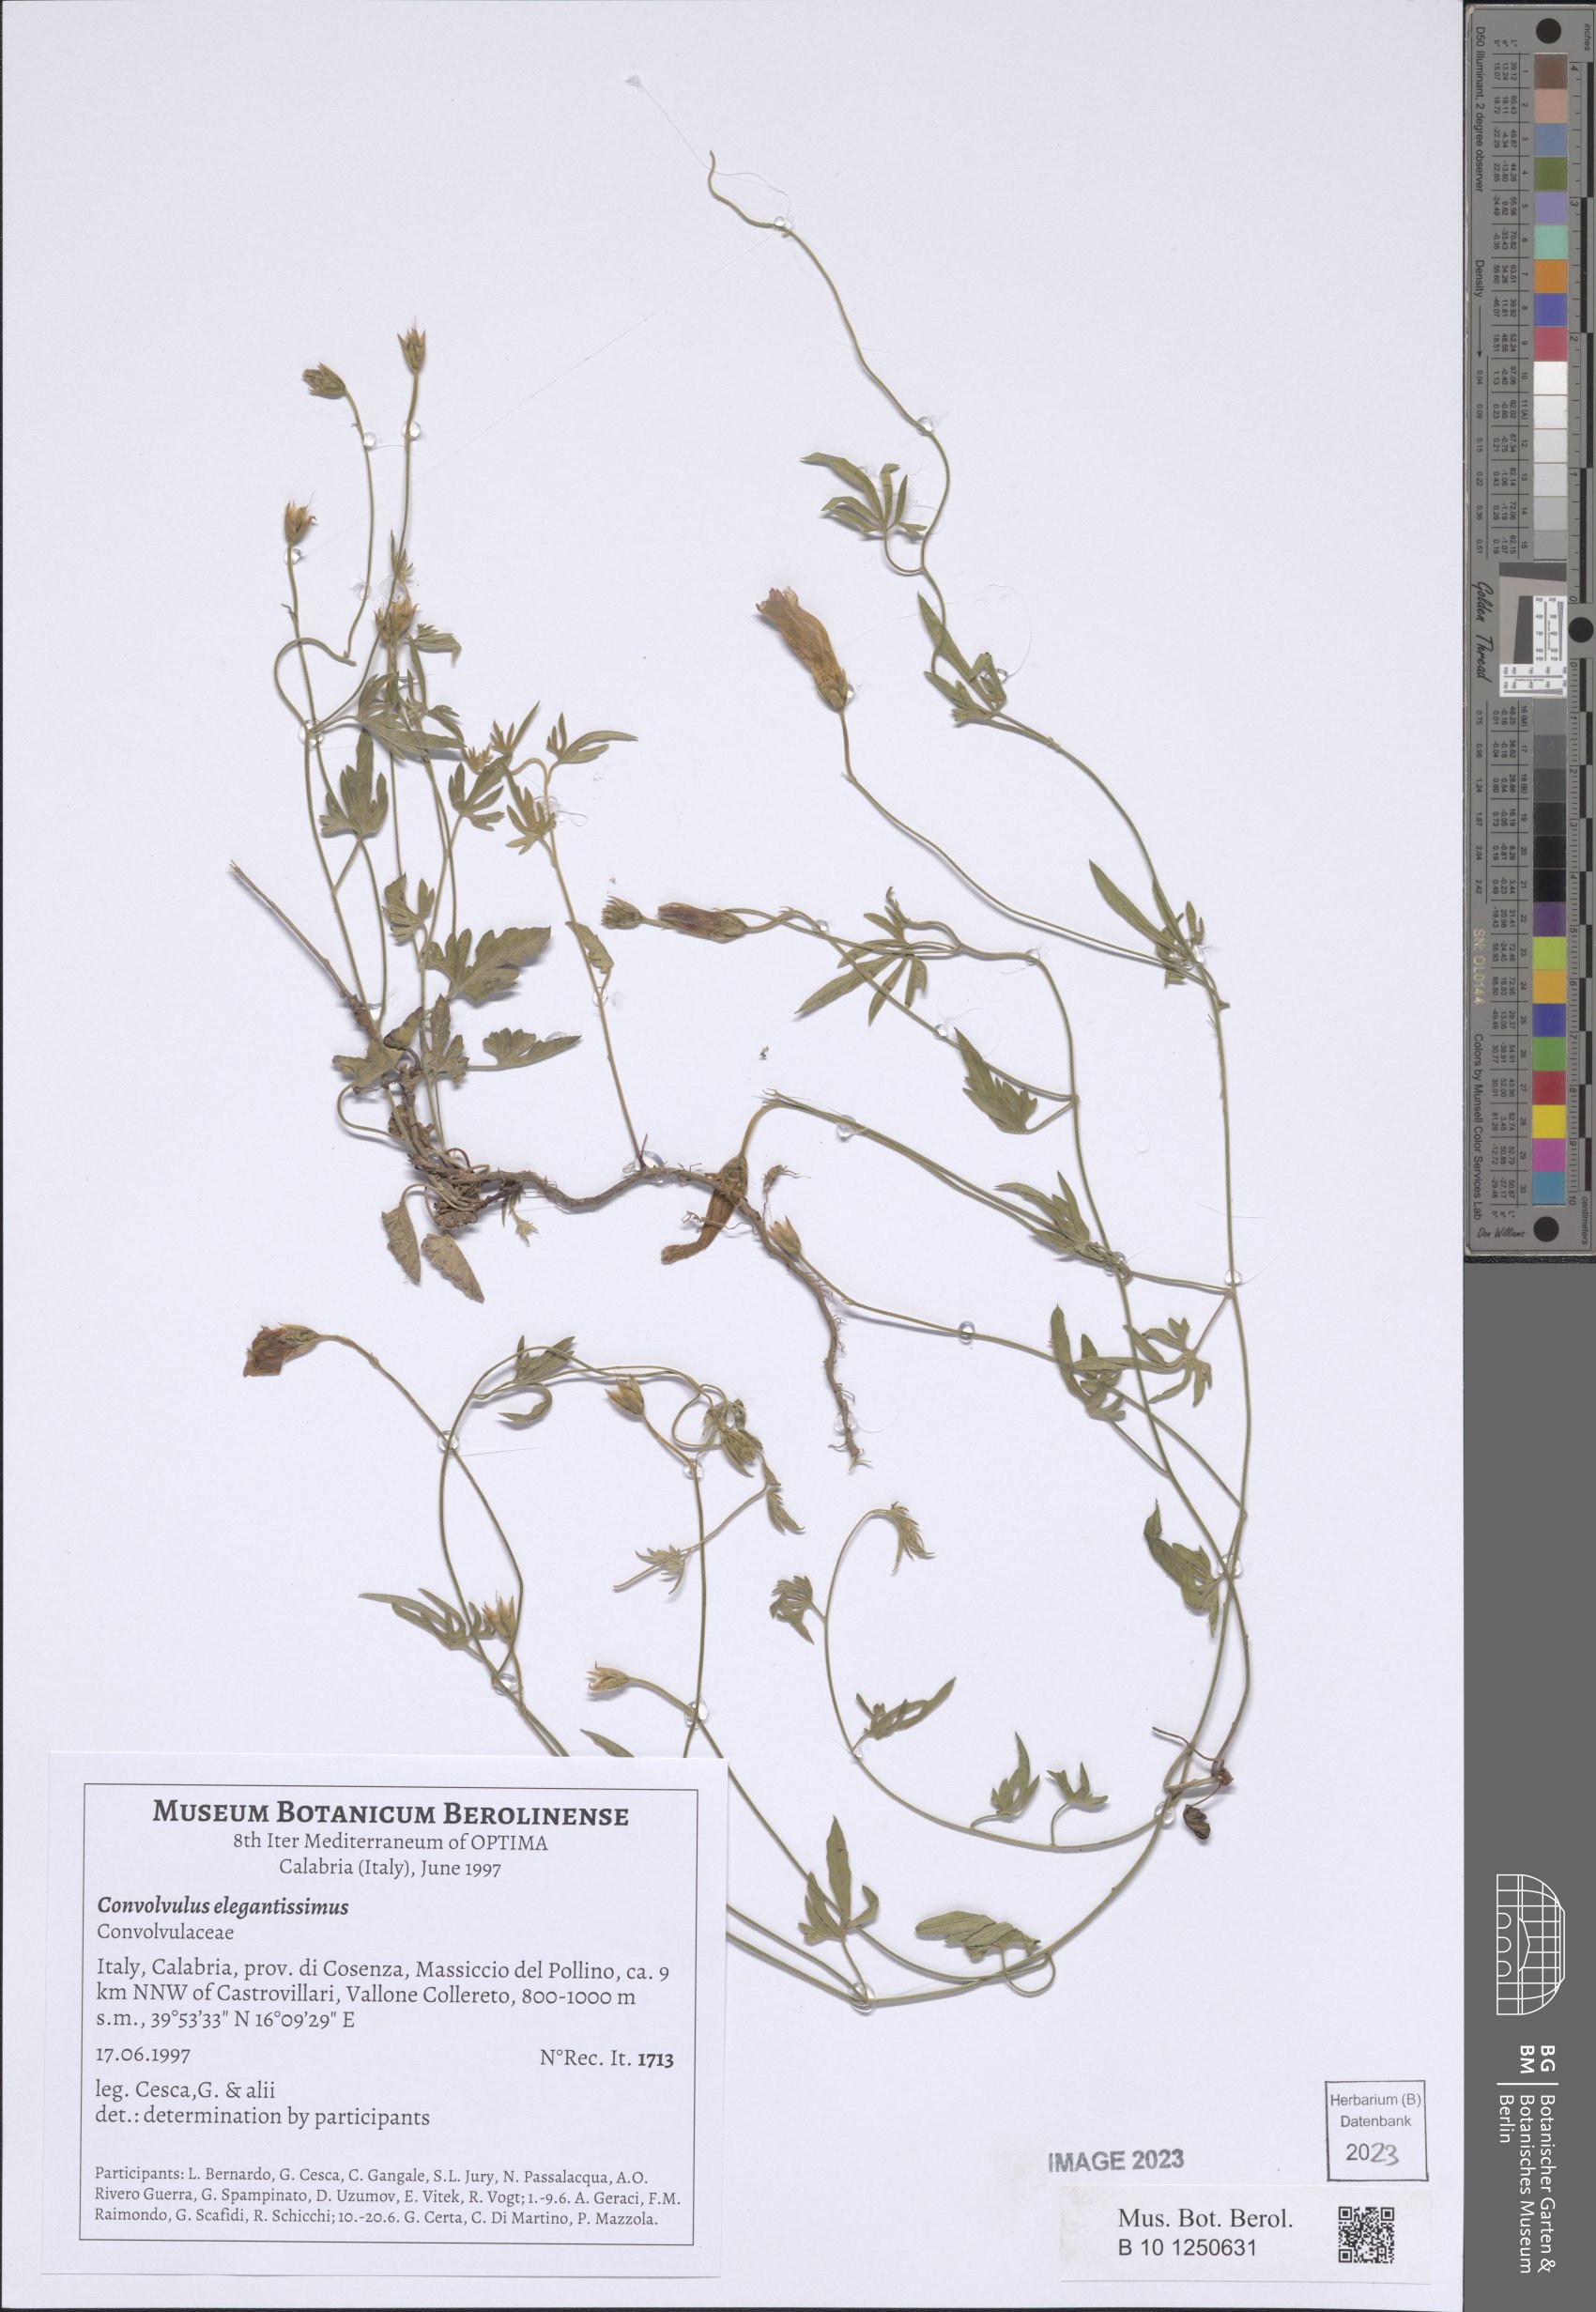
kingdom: Plantae
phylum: Tracheophyta
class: Magnoliopsida
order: Solanales
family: Convolvulaceae
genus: Convolvulus
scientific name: Convolvulus elegantissimus
